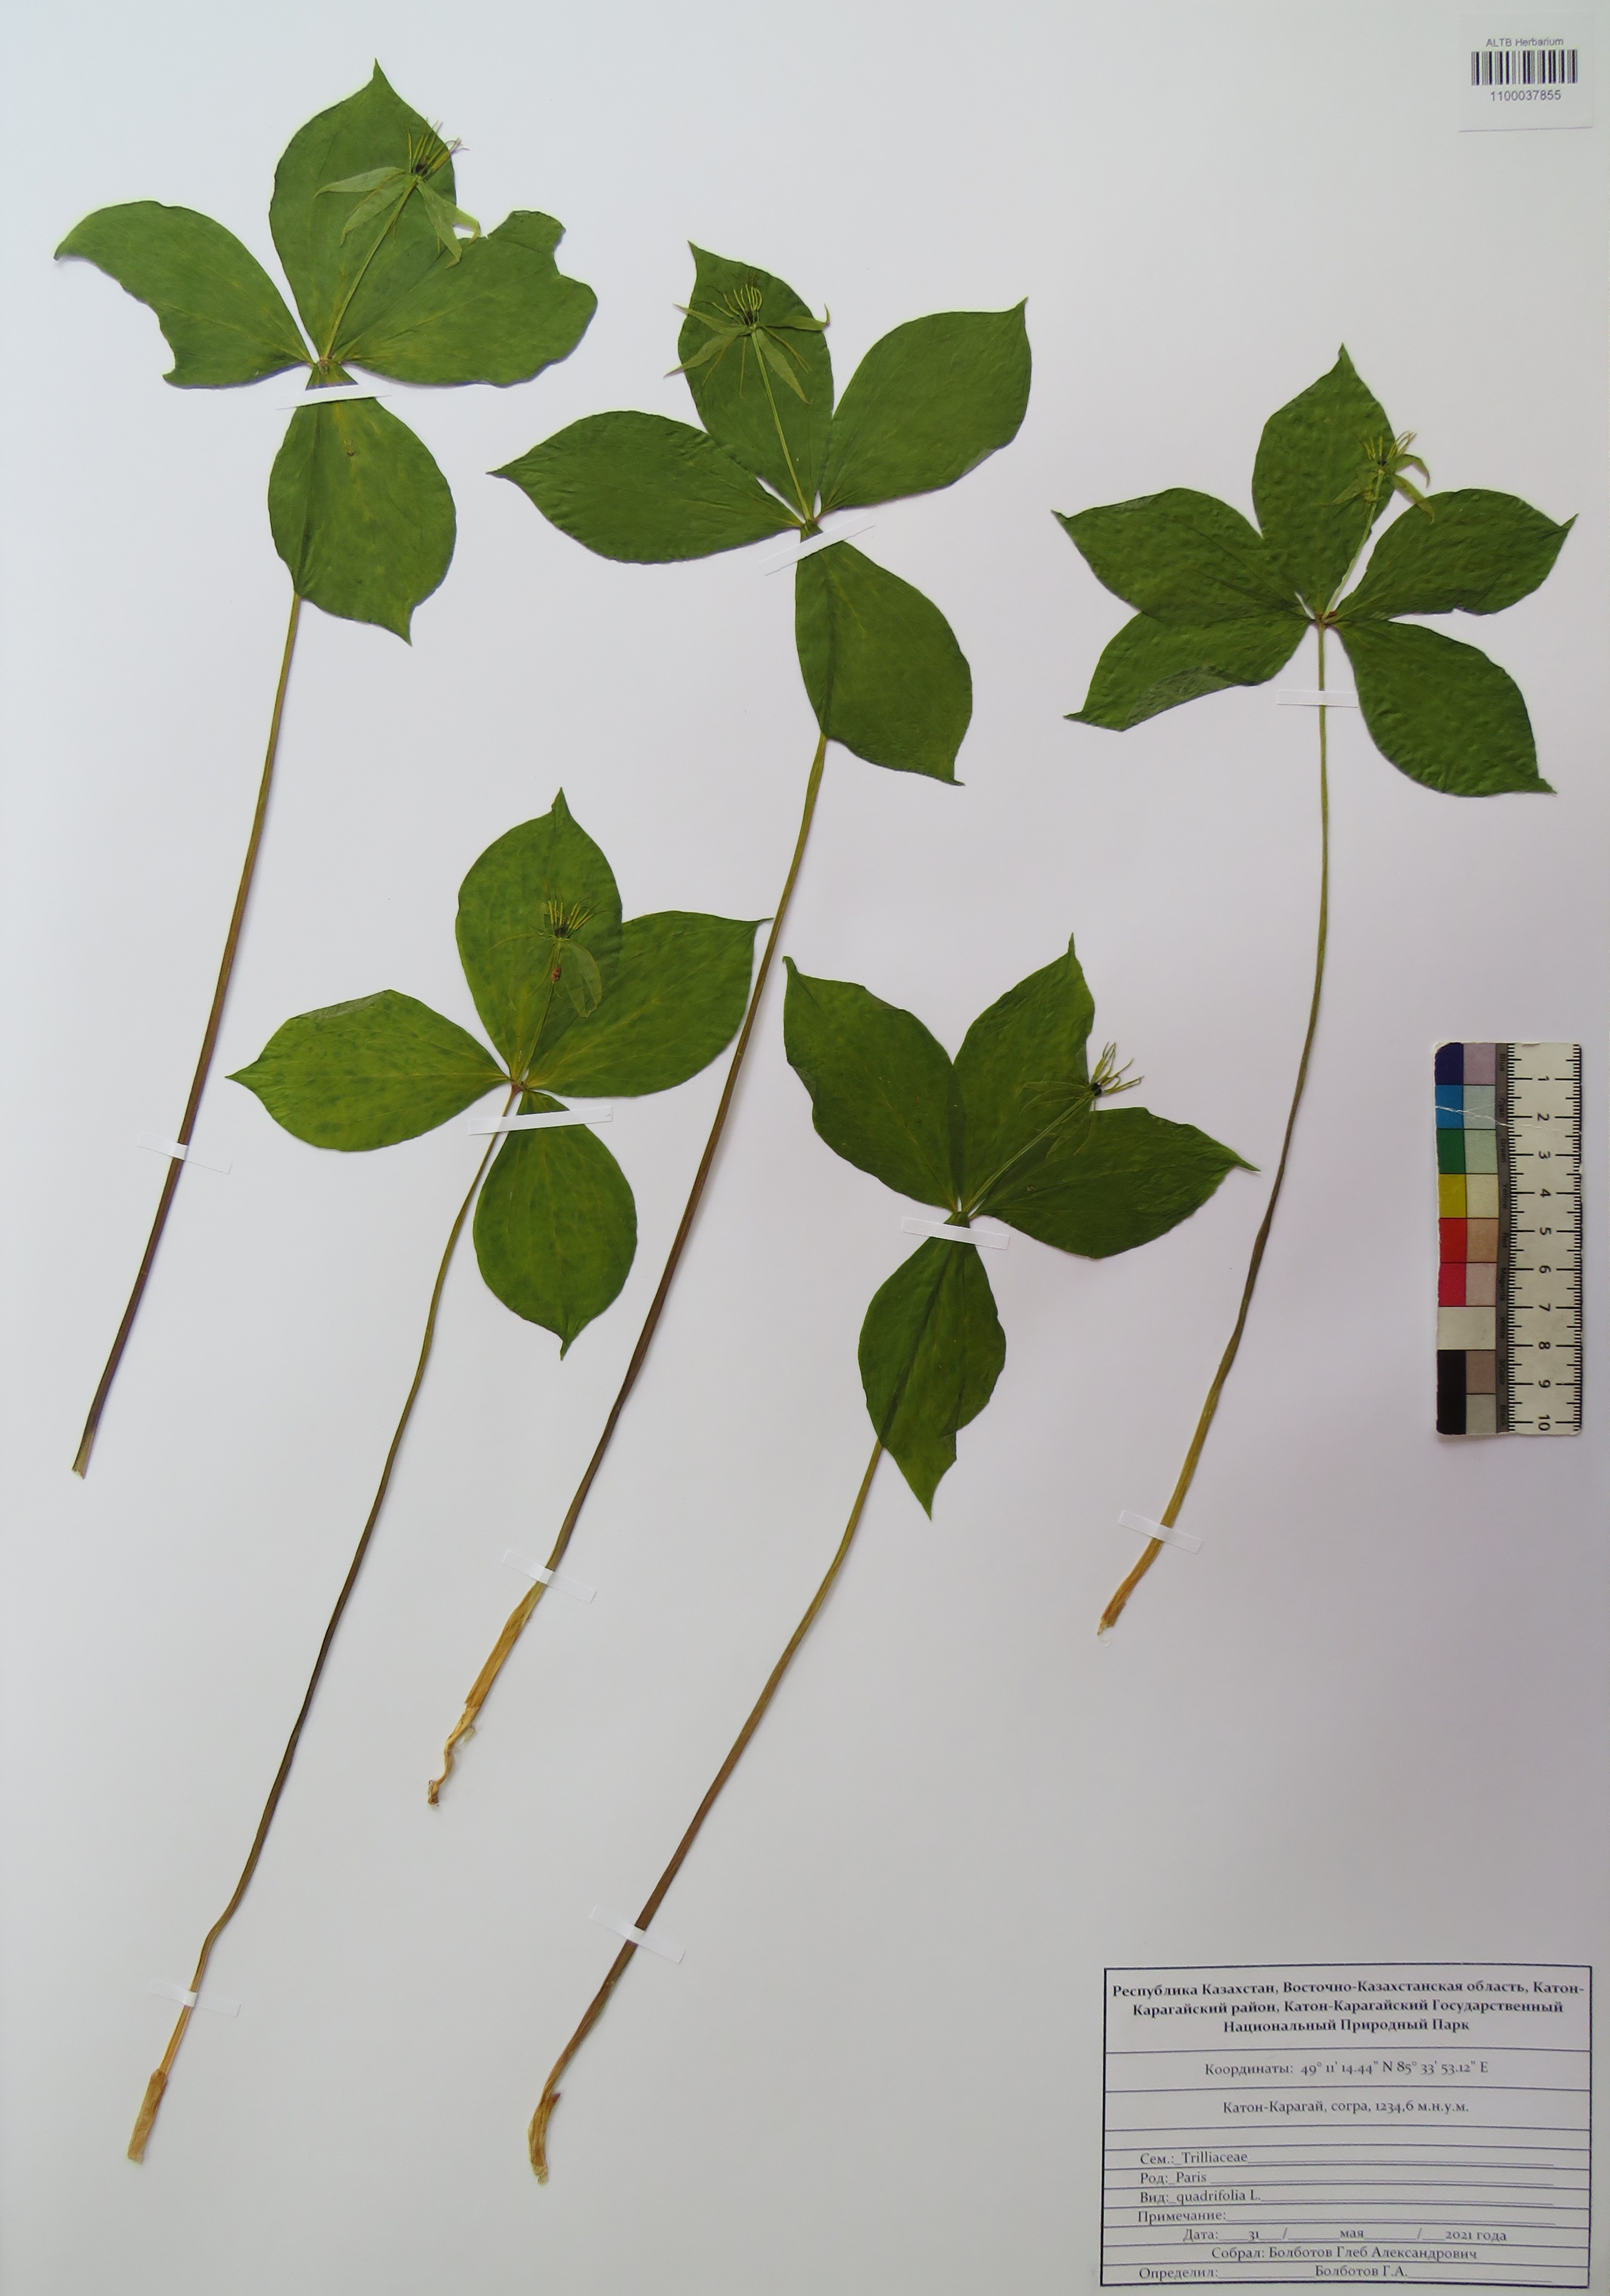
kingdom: Plantae
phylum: Tracheophyta
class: Liliopsida
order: Liliales
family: Melanthiaceae
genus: Paris
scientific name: Paris quadrifolia
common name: Herb-paris
